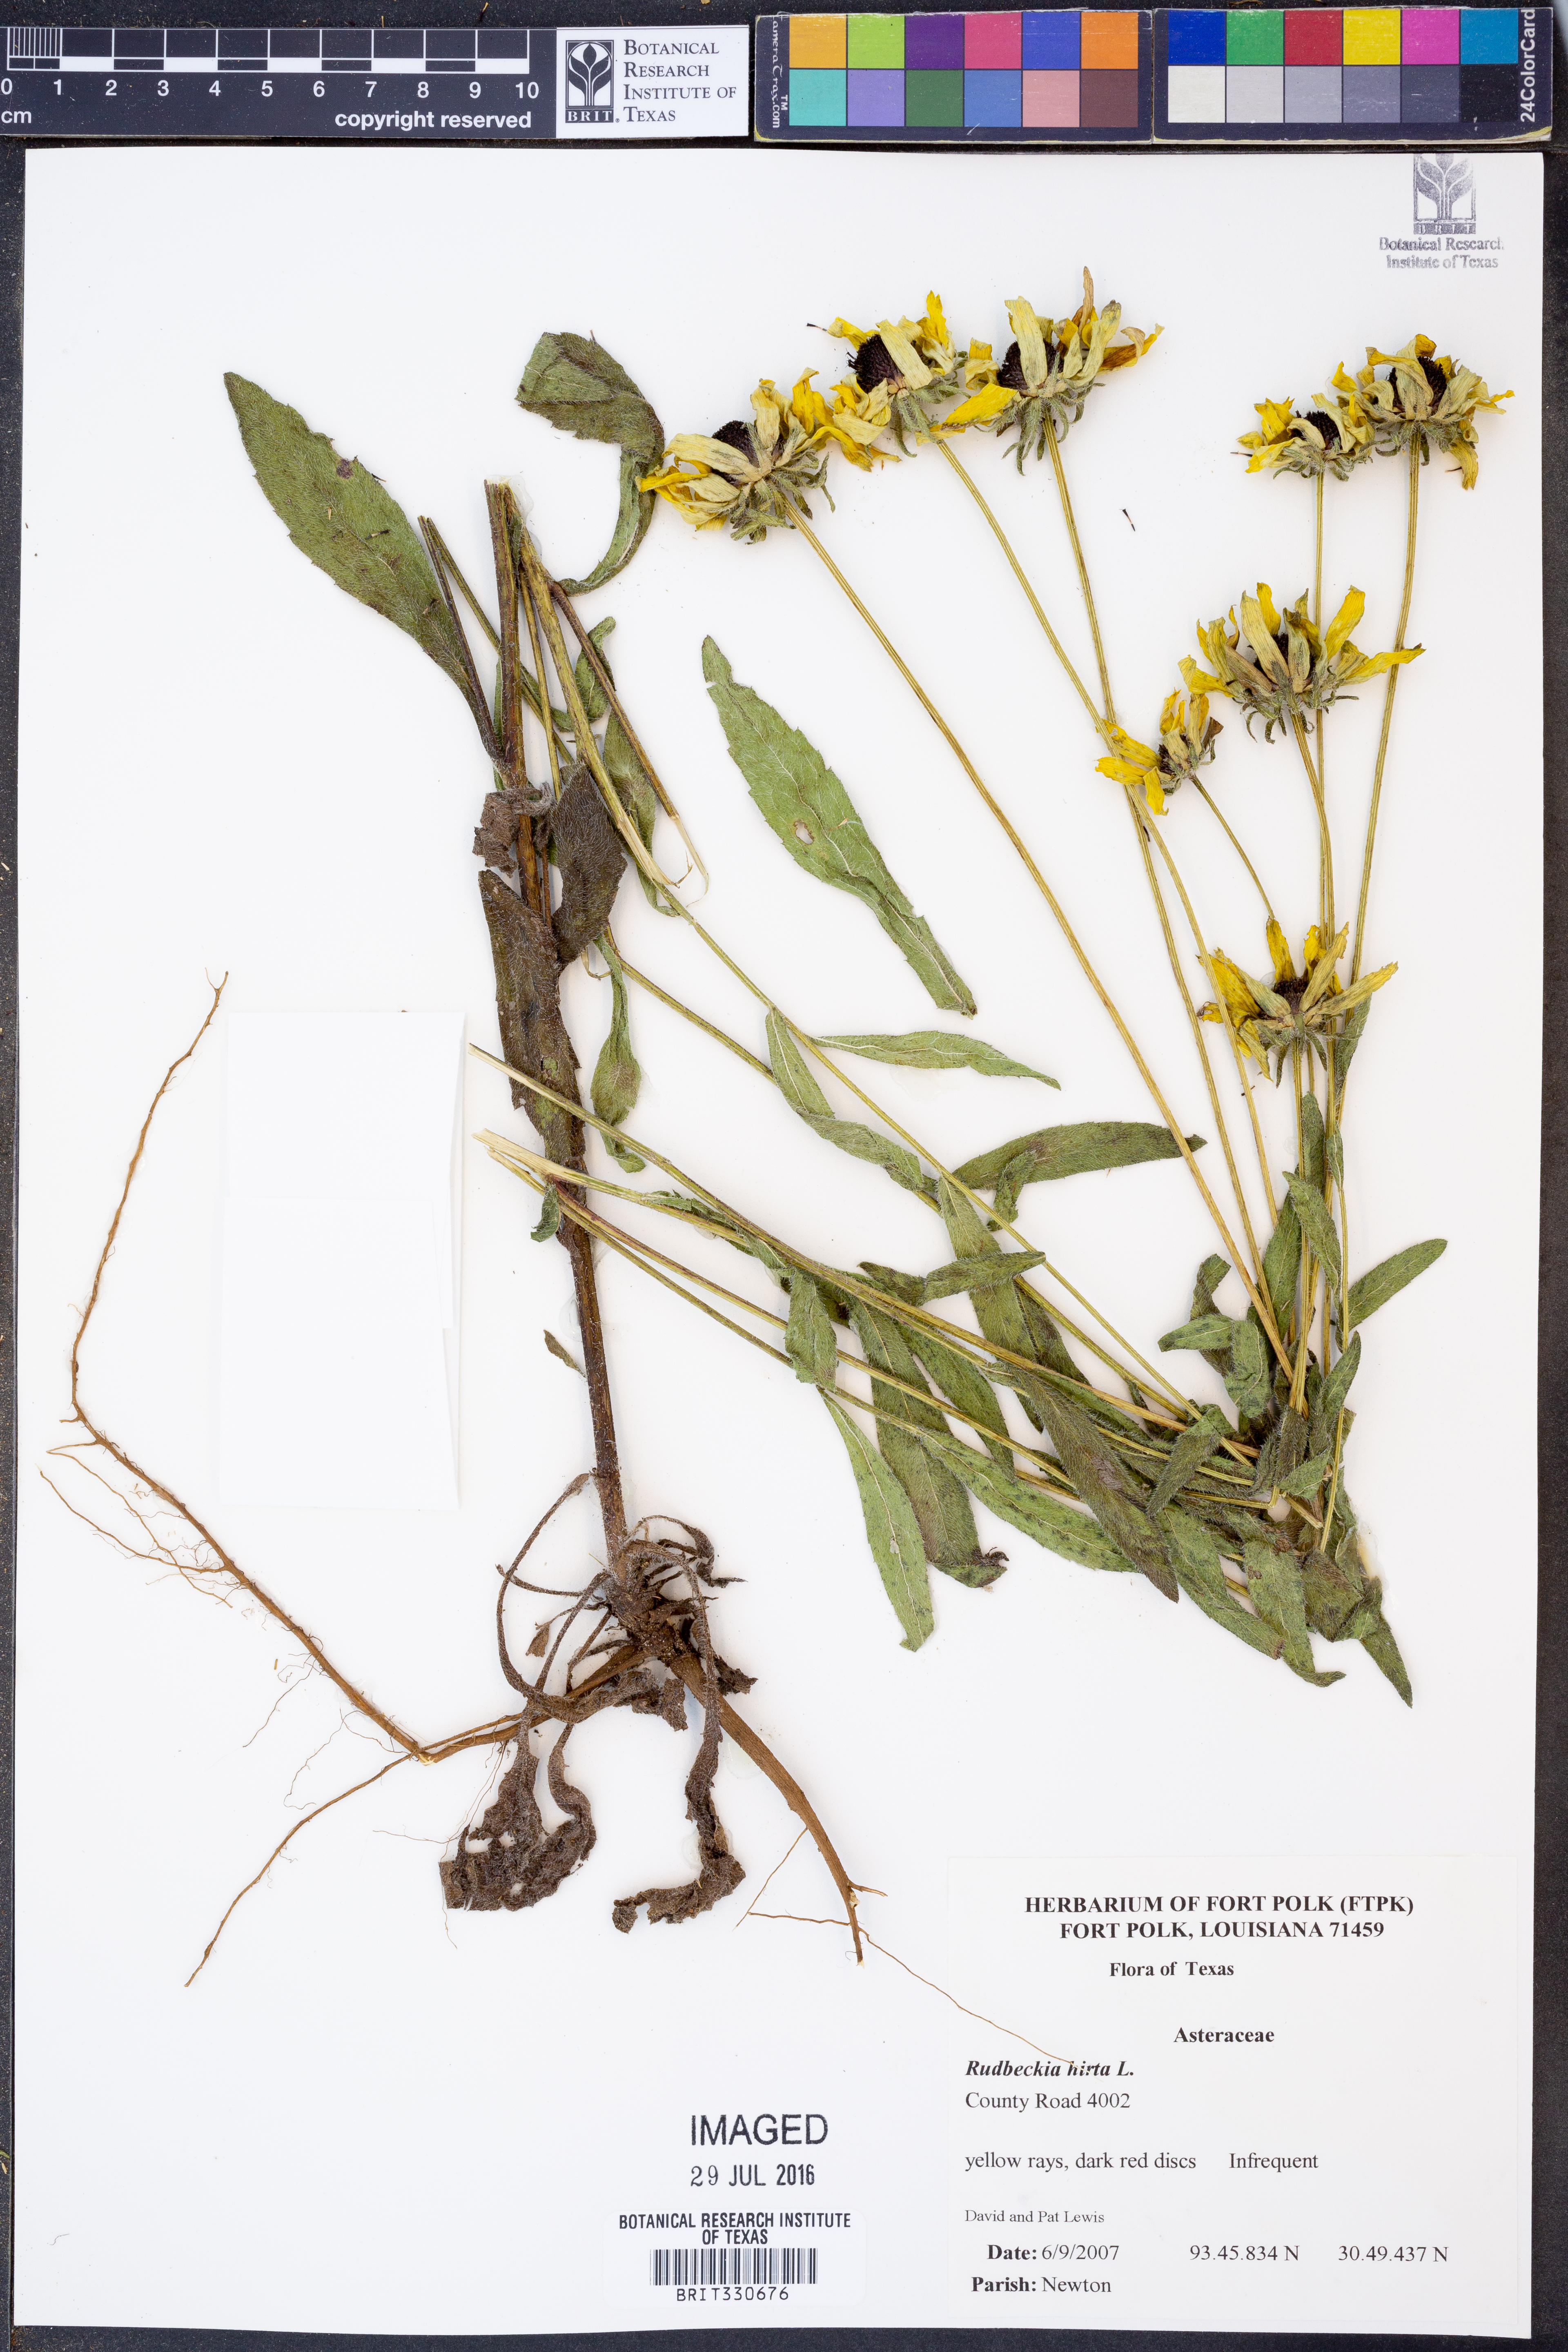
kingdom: Plantae
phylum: Tracheophyta
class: Magnoliopsida
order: Asterales
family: Asteraceae
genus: Rudbeckia
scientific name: Rudbeckia hirta
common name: Black-eyed-susan
